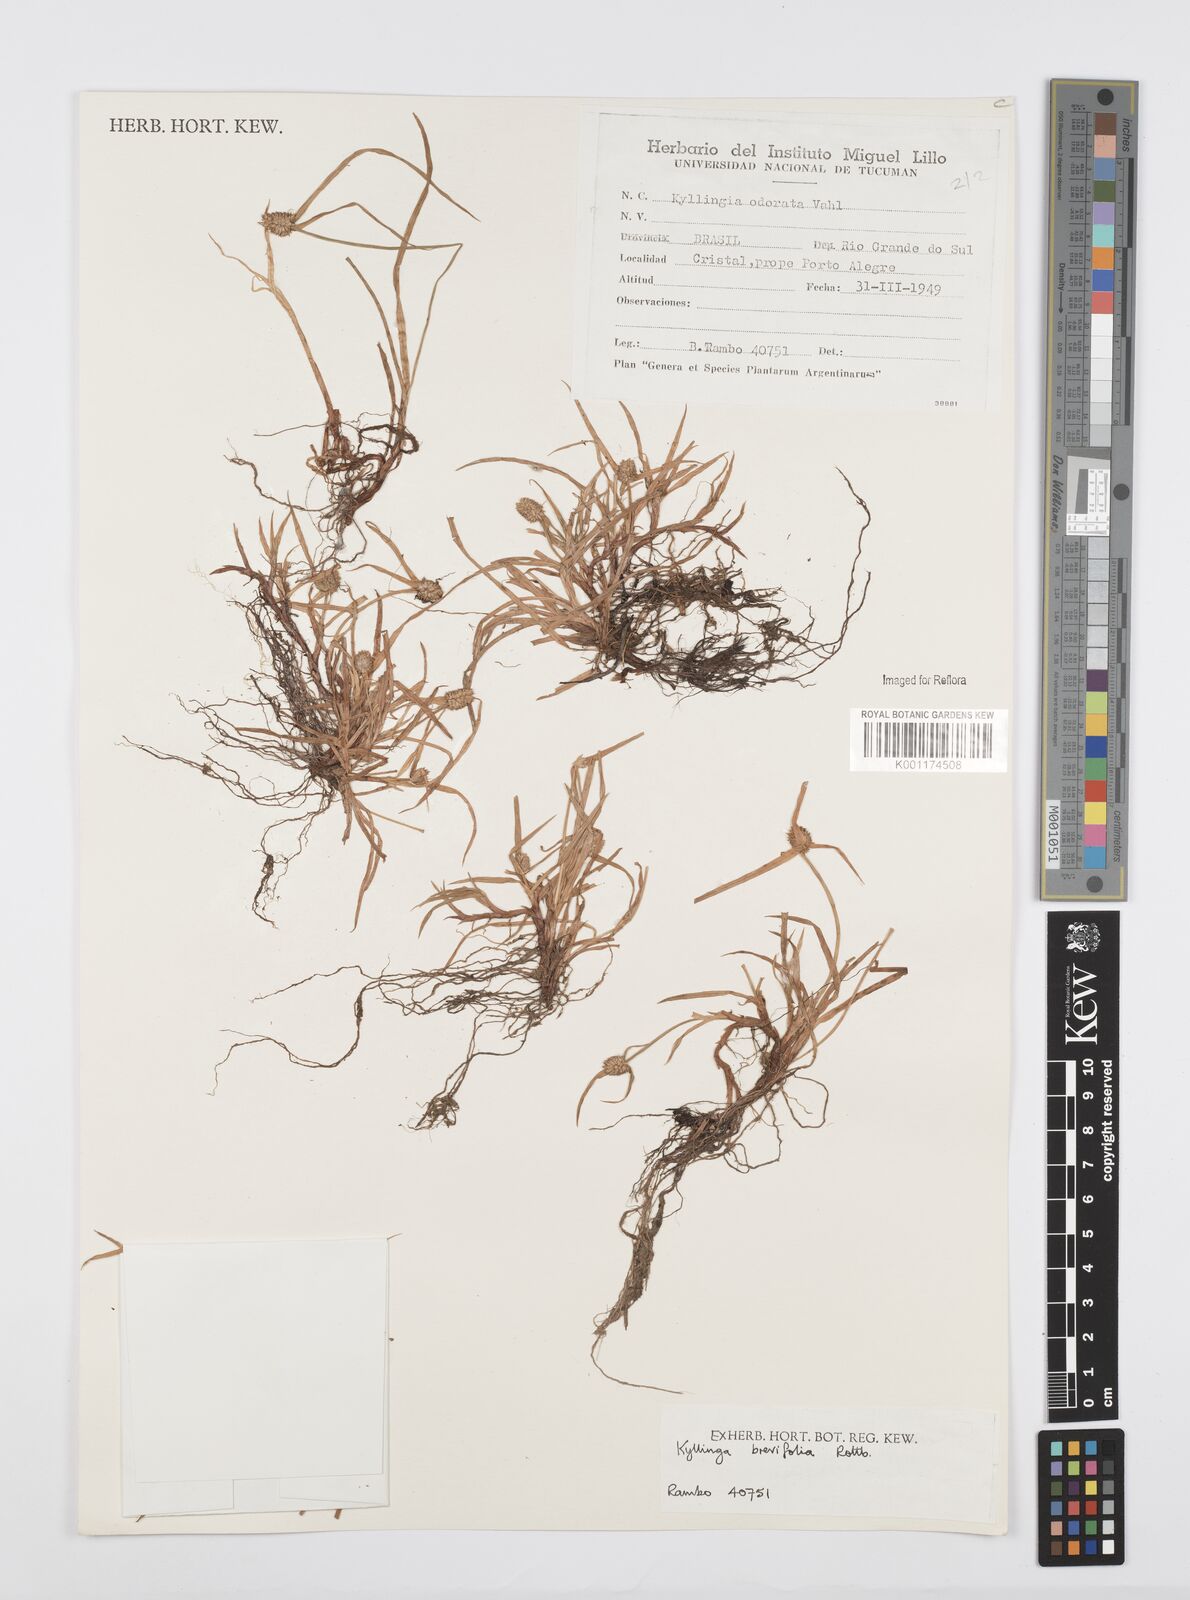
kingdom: Plantae
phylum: Tracheophyta
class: Liliopsida
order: Poales
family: Cyperaceae
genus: Cyperus
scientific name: Cyperus brevifolius
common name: Globe kyllinga
